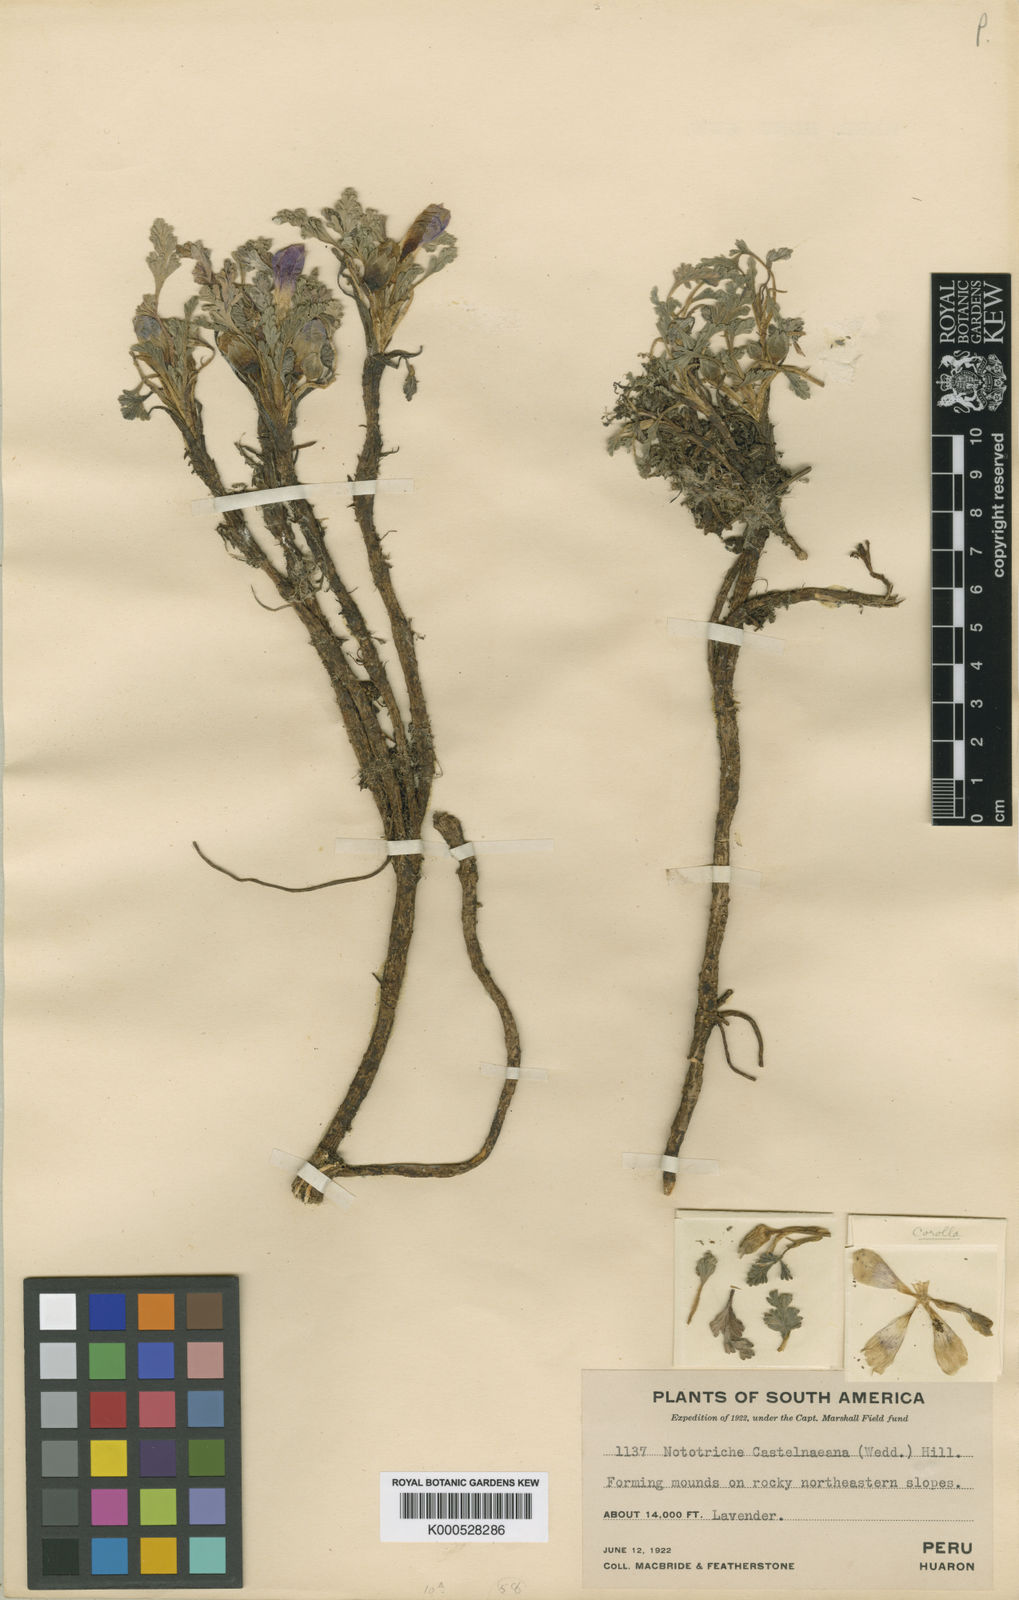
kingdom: Plantae
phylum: Tracheophyta
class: Magnoliopsida
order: Malvales
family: Malvaceae
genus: Nototriche
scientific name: Nototriche digitulifolia
